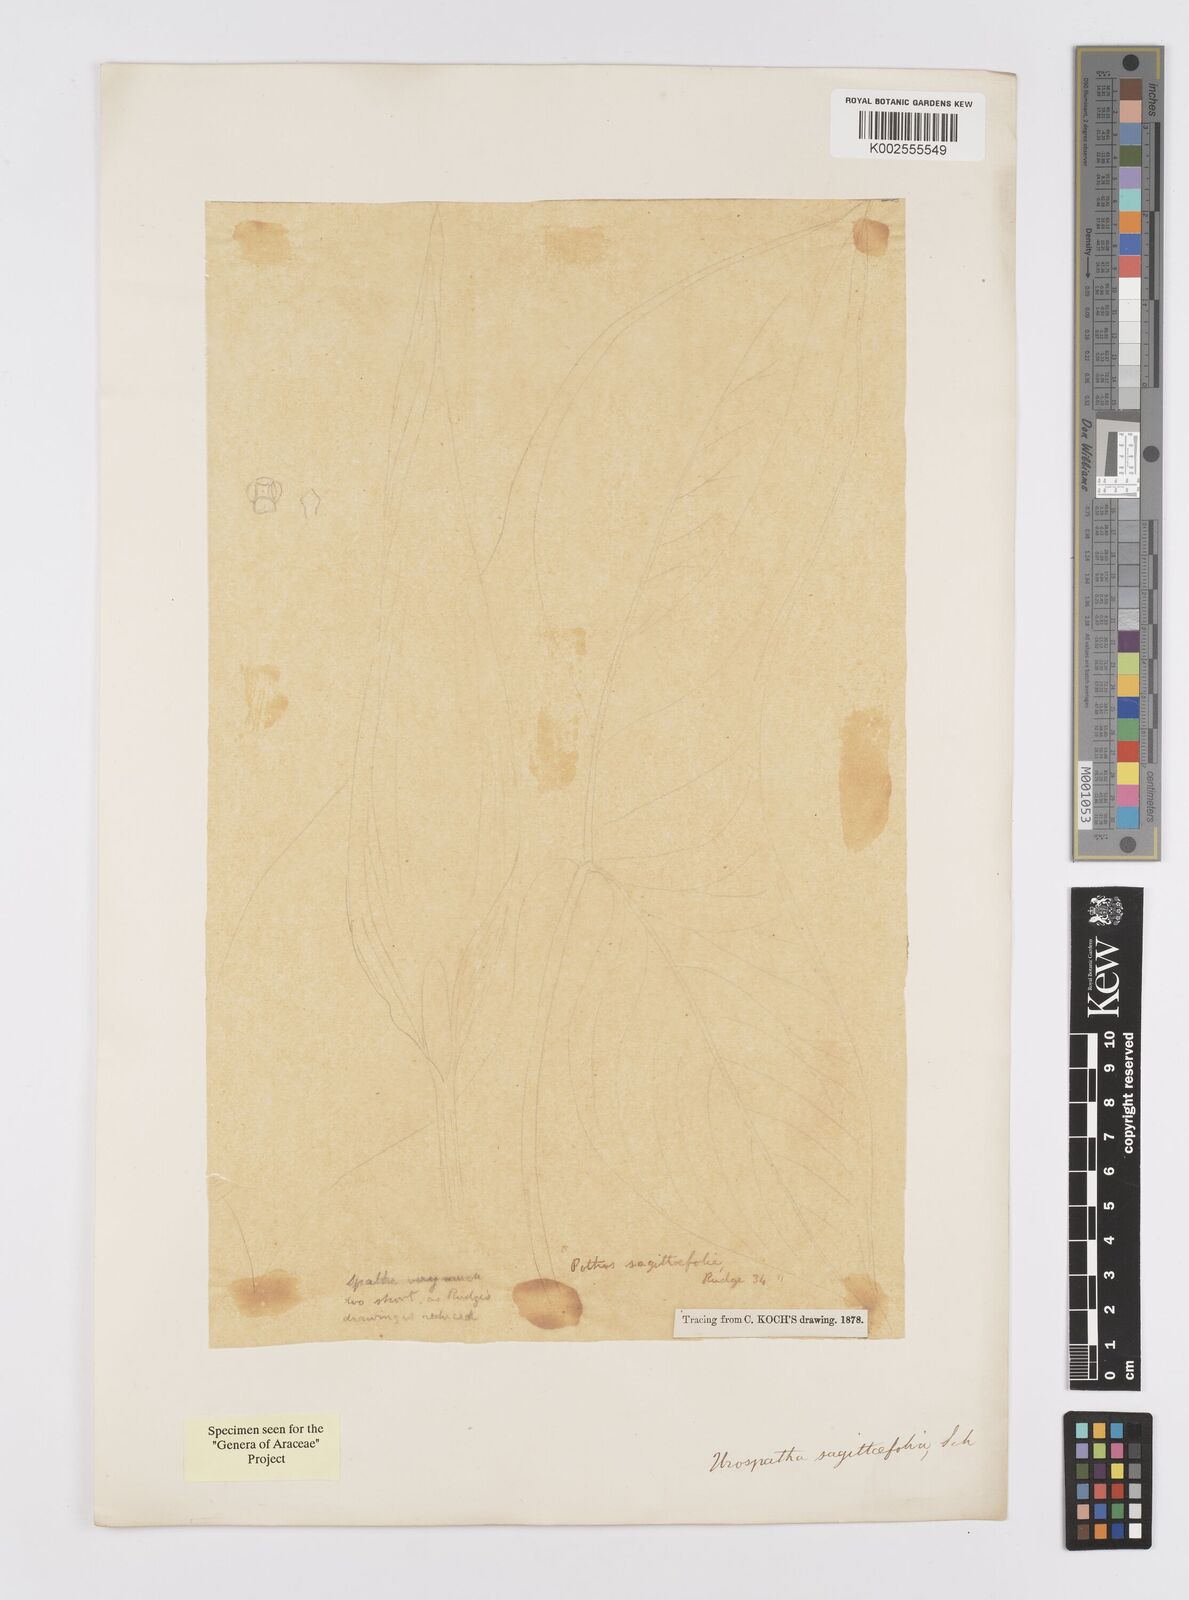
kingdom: Plantae
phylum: Tracheophyta
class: Liliopsida
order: Alismatales
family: Araceae
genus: Urospatha
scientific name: Urospatha sagittifolia
